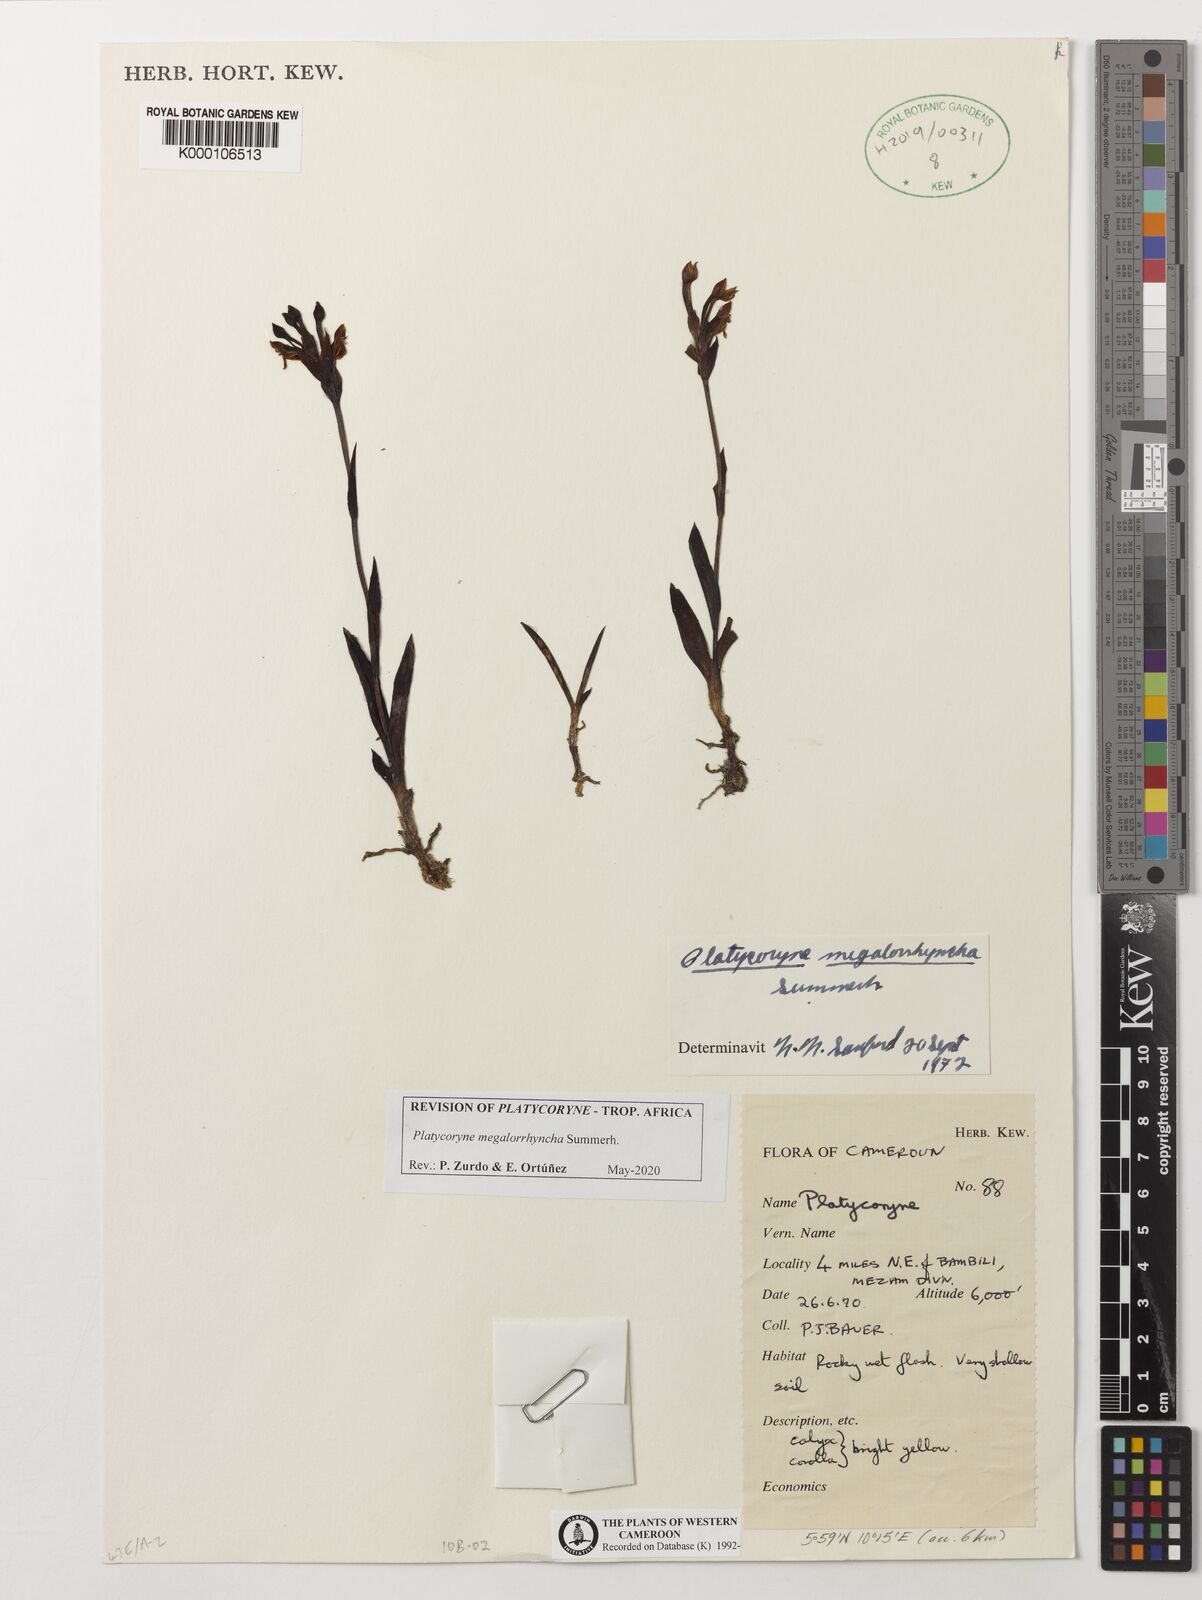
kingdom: Plantae
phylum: Tracheophyta
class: Liliopsida
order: Asparagales
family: Orchidaceae
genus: Platycoryne
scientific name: Platycoryne megalorrhyncha
